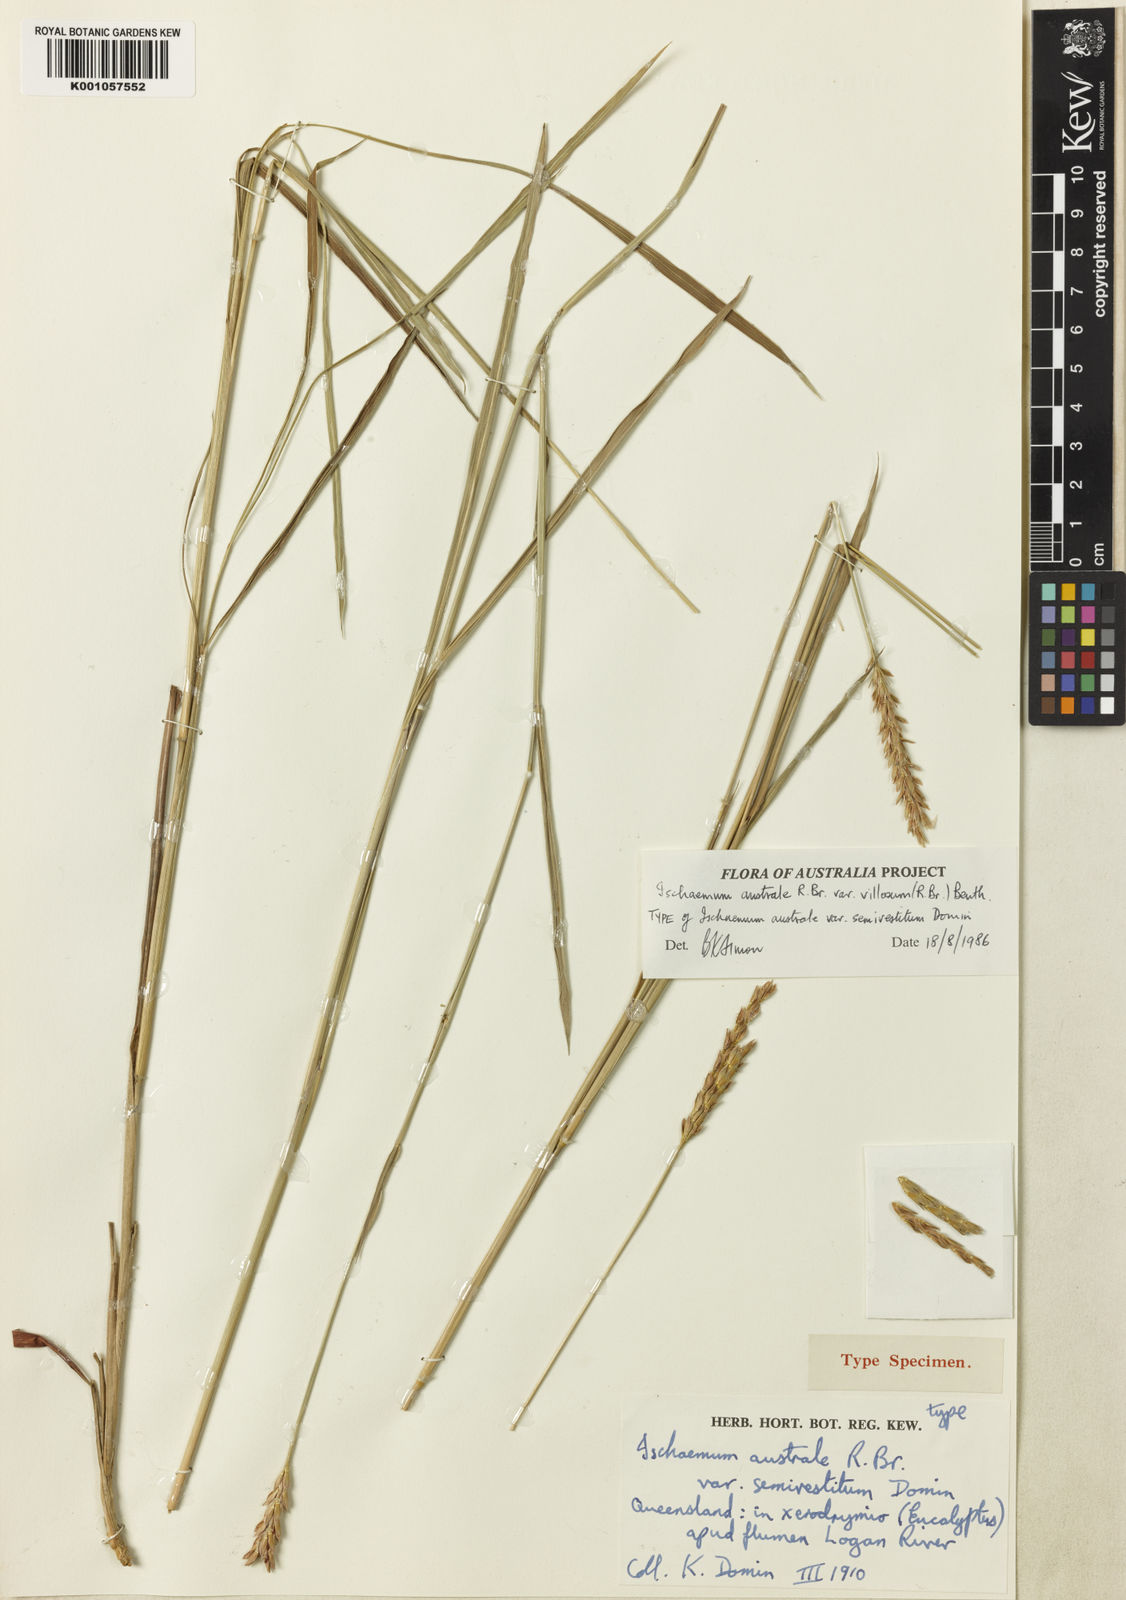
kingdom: Plantae
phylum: Tracheophyta
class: Liliopsida
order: Poales
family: Poaceae
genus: Ischaemum
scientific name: Ischaemum australe
